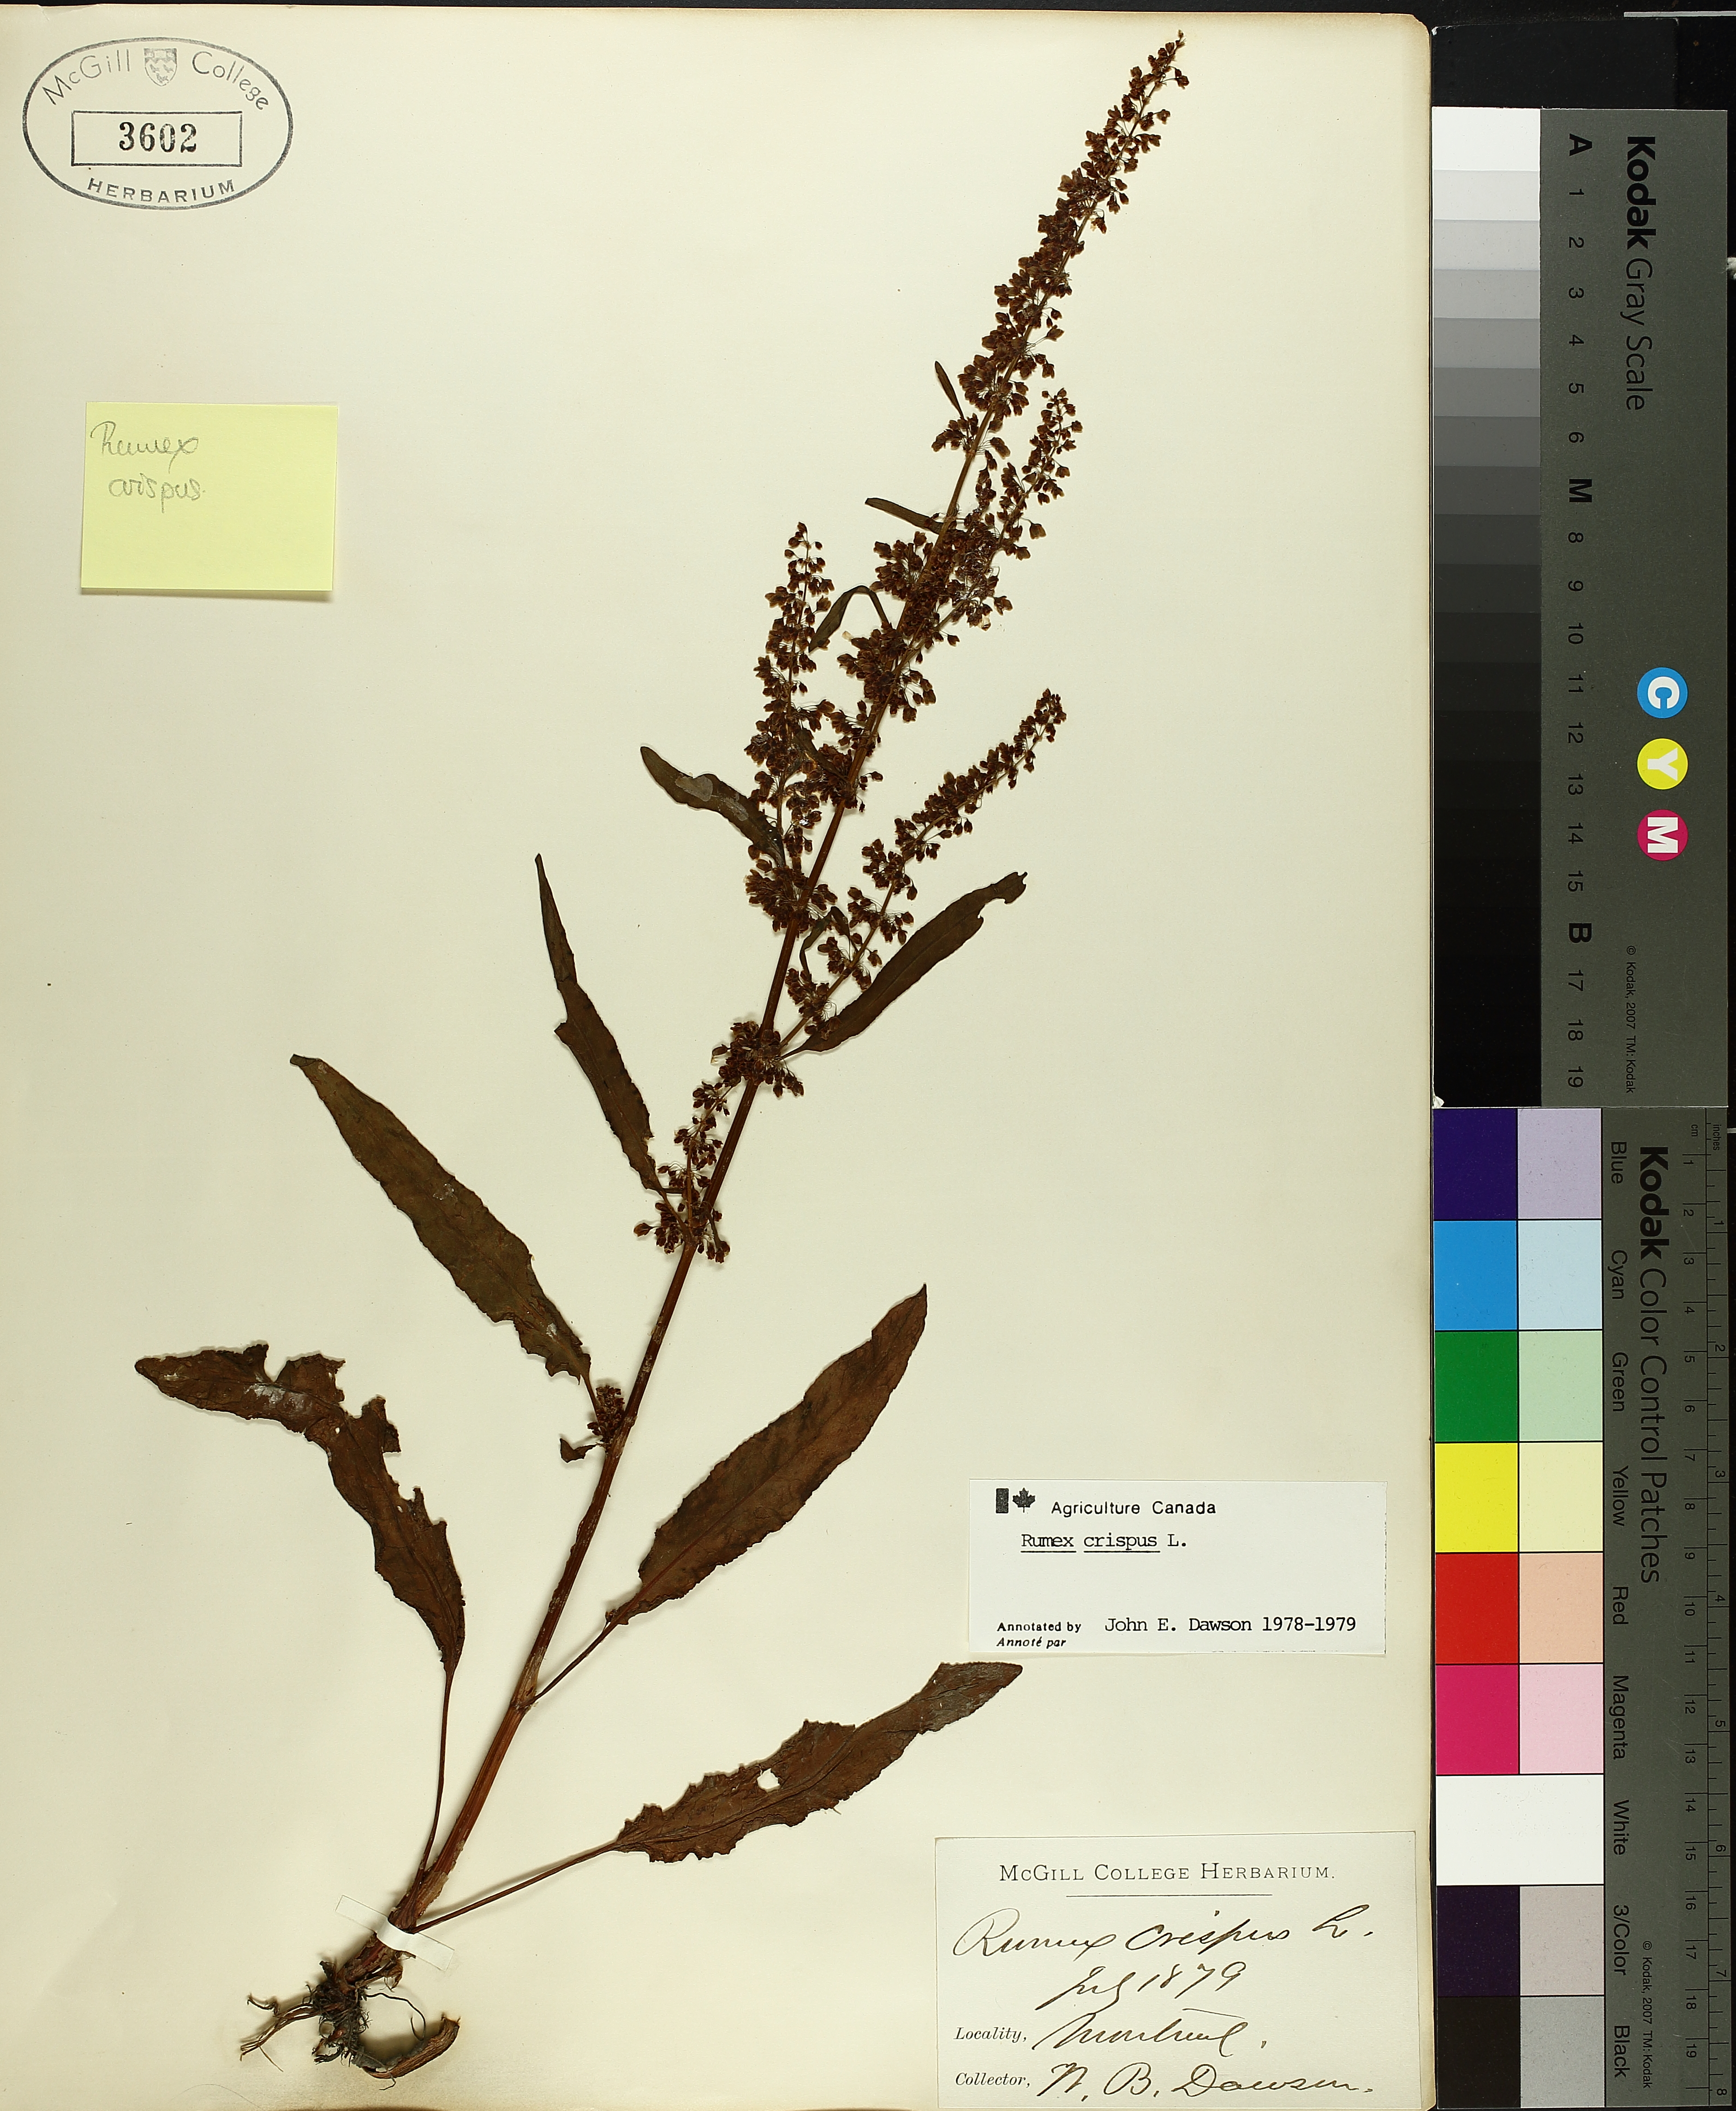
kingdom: Plantae
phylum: Tracheophyta
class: Magnoliopsida
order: Caryophyllales
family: Polygonaceae
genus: Rumex
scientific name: Rumex crispus
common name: Curled dock
